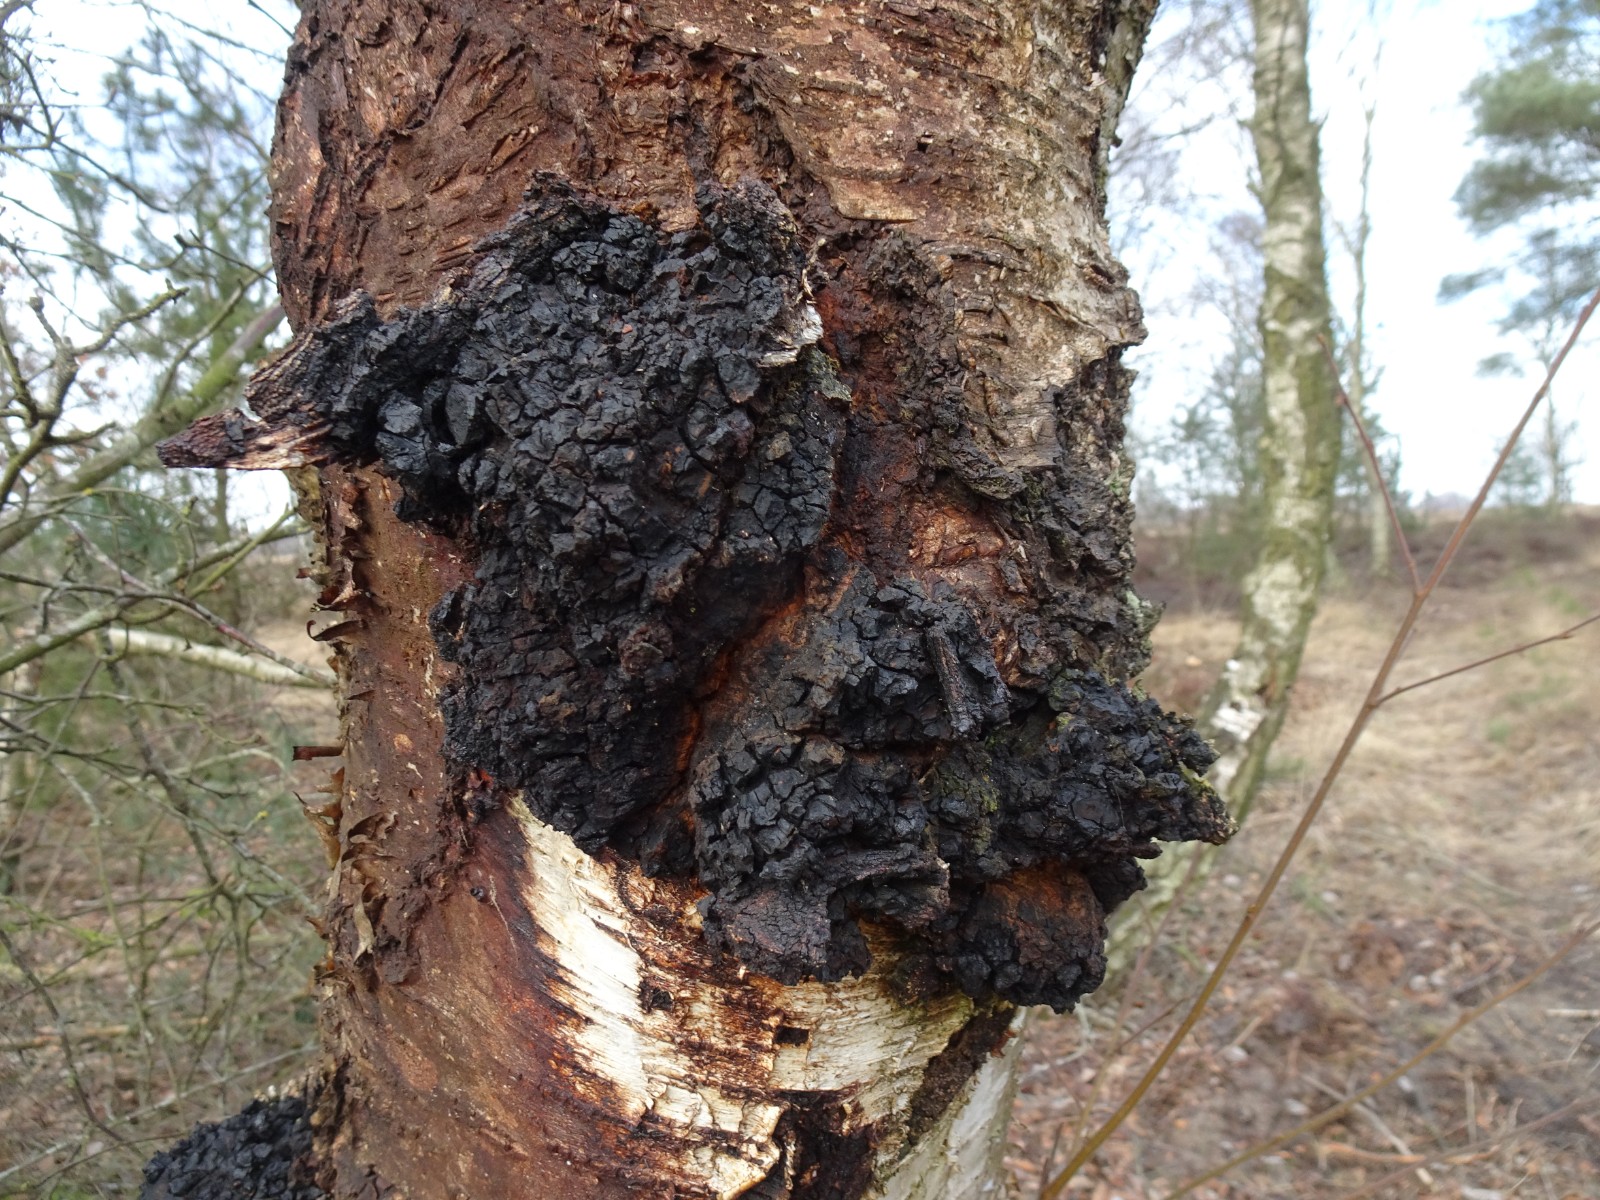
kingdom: Fungi
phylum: Basidiomycota
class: Agaricomycetes
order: Hymenochaetales
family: Hymenochaetaceae
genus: Inonotus
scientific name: Inonotus obliquus
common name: birke-spejlporesvamp
